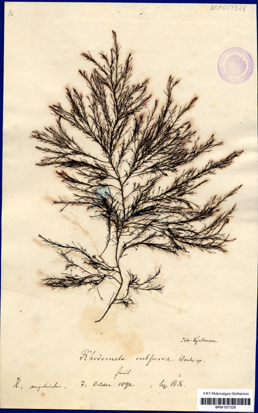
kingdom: Plantae
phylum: Rhodophyta
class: Florideophyceae
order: Ceramiales
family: Rhodomelaceae
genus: Rhodomela
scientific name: Rhodomela confervoides
